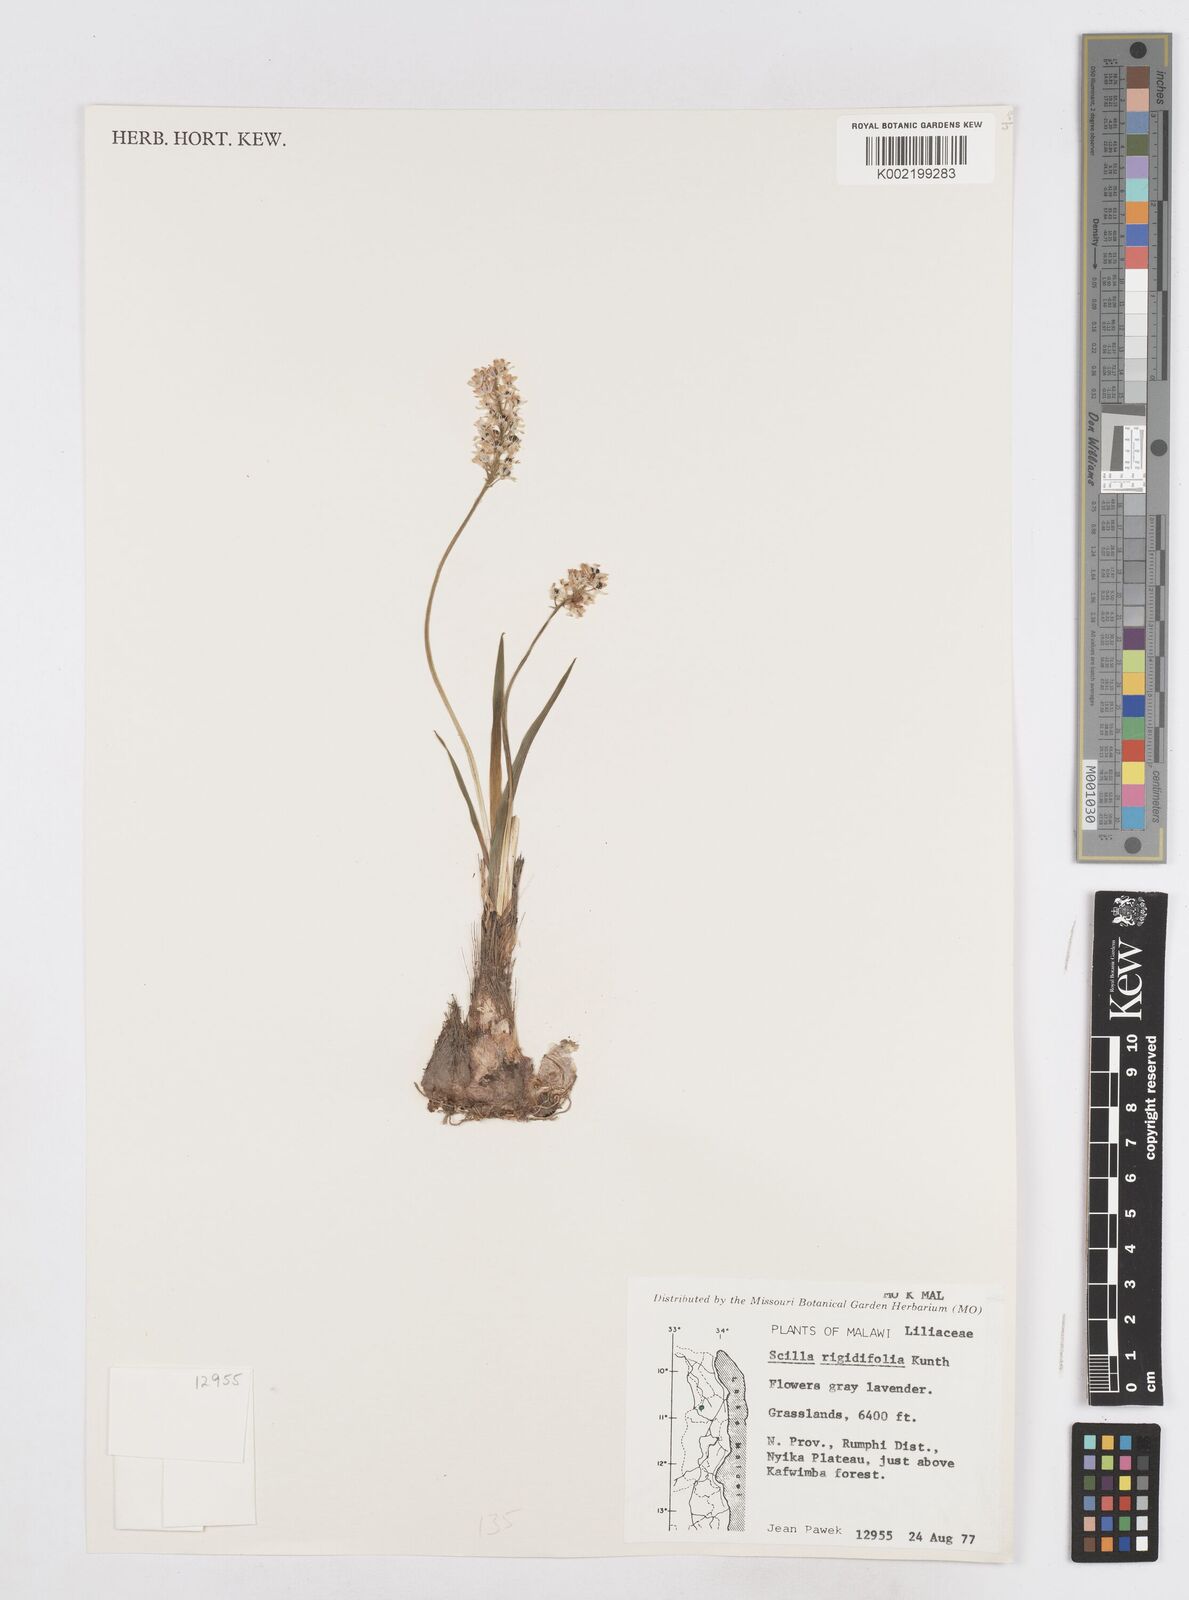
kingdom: Plantae
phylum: Tracheophyta
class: Liliopsida
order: Asparagales
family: Asparagaceae
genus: Schizocarphus
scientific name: Schizocarphus nervosus
